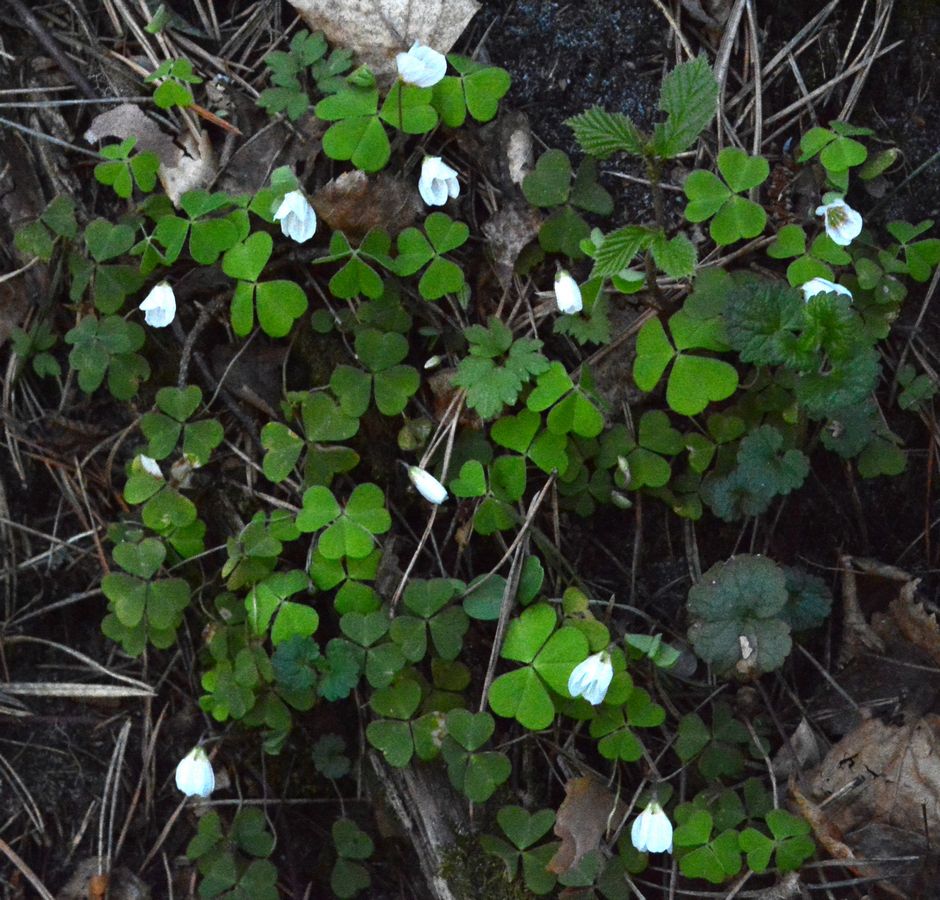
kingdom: Plantae
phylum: Tracheophyta
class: Magnoliopsida
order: Oxalidales
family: Oxalidaceae
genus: Oxalis
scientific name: Oxalis acetosella
